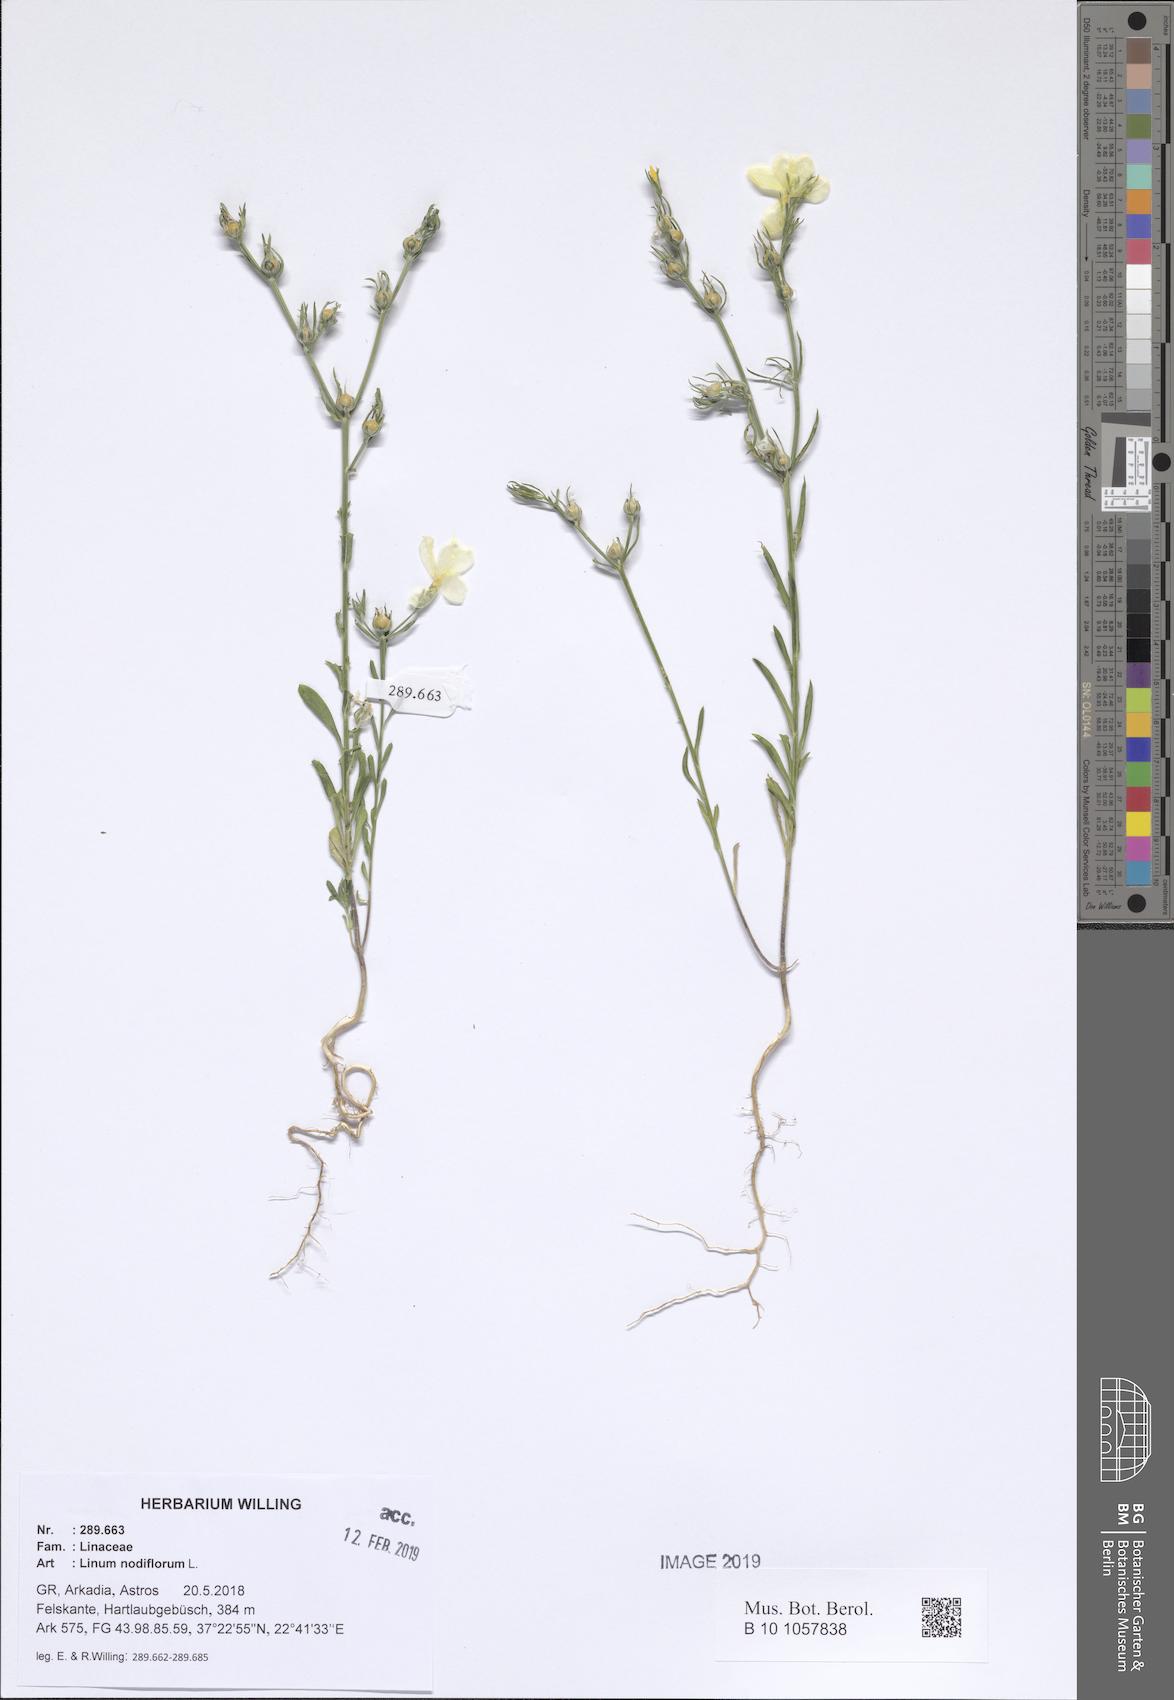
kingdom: Plantae
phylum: Tracheophyta
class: Magnoliopsida
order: Malpighiales
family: Linaceae
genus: Linum
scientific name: Linum nodiflorum
